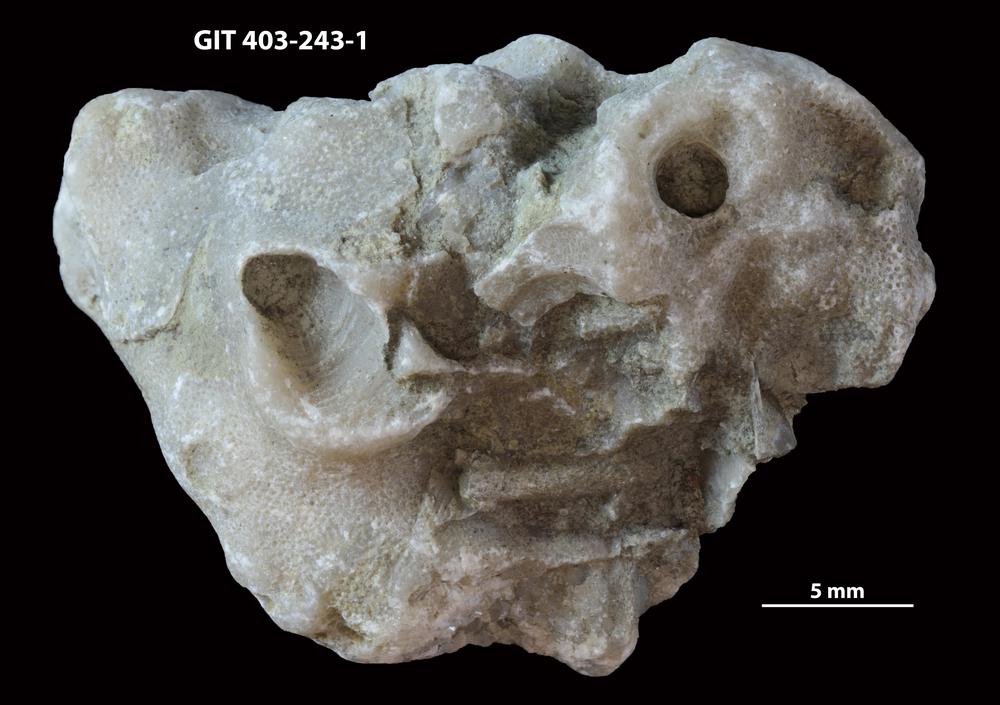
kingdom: Animalia
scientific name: Animalia
